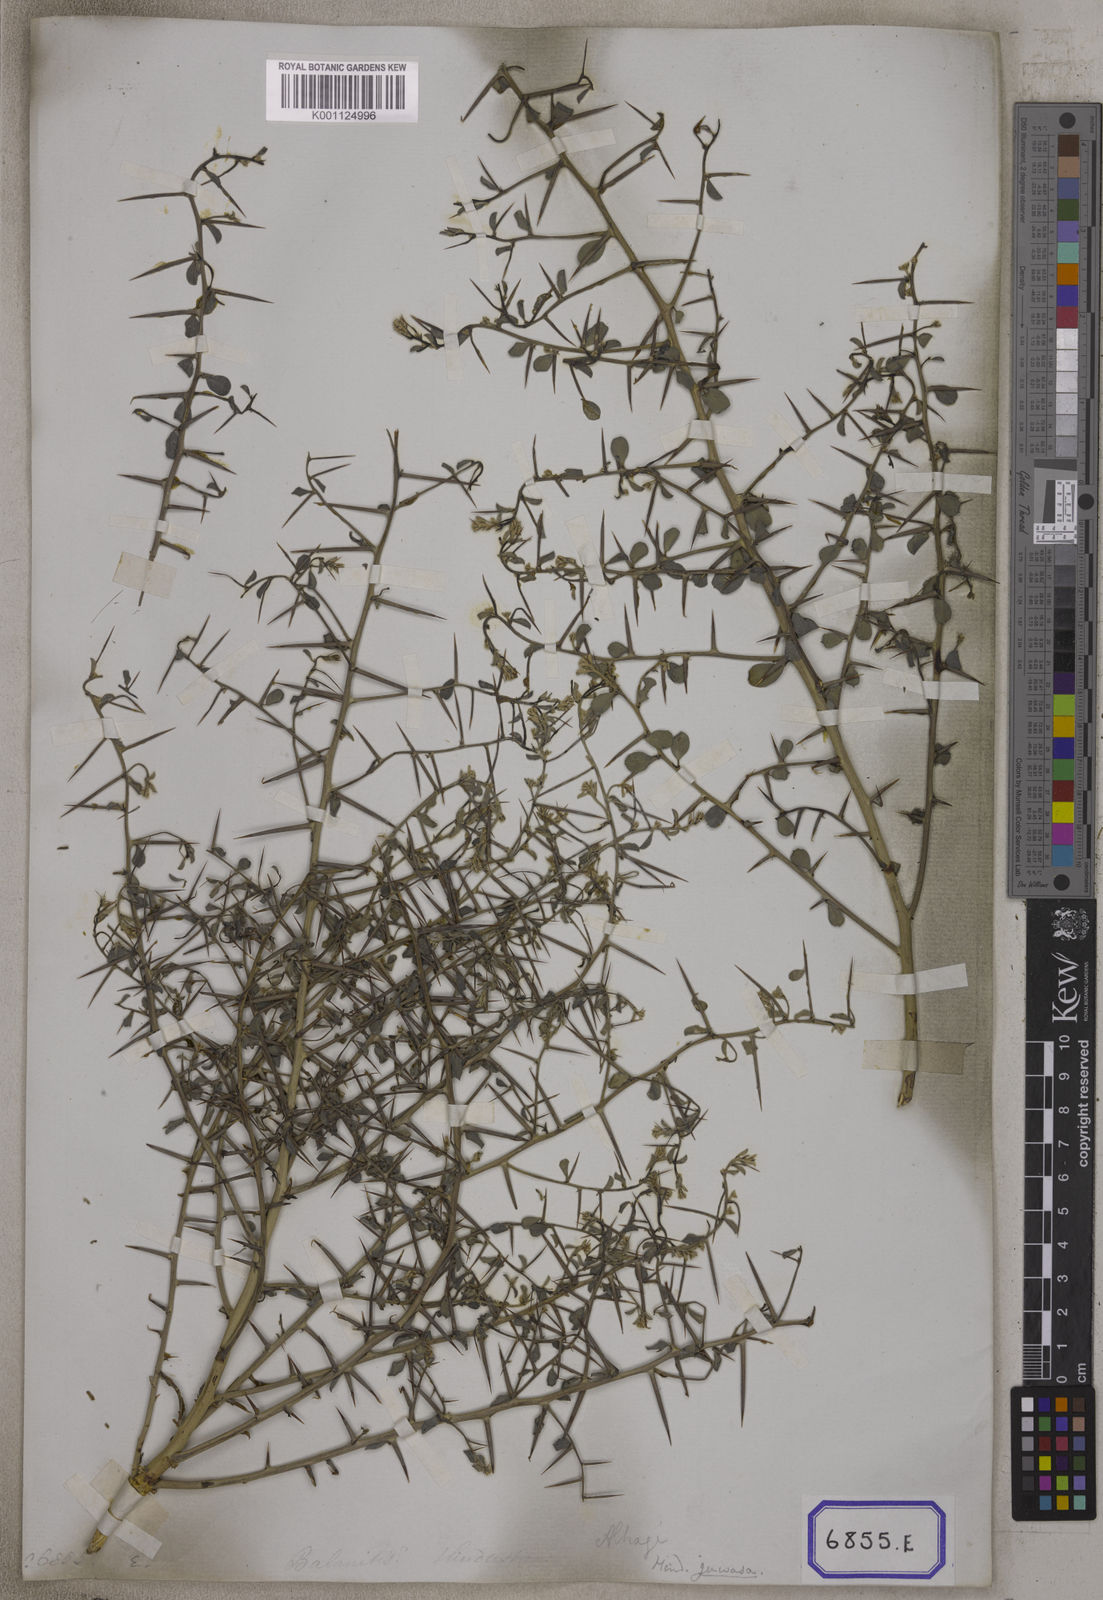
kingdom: Plantae
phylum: Tracheophyta
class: Magnoliopsida
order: Zygophyllales
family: Zygophyllaceae
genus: Balanites
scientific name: Balanites aegyptiaca
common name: Balanites
